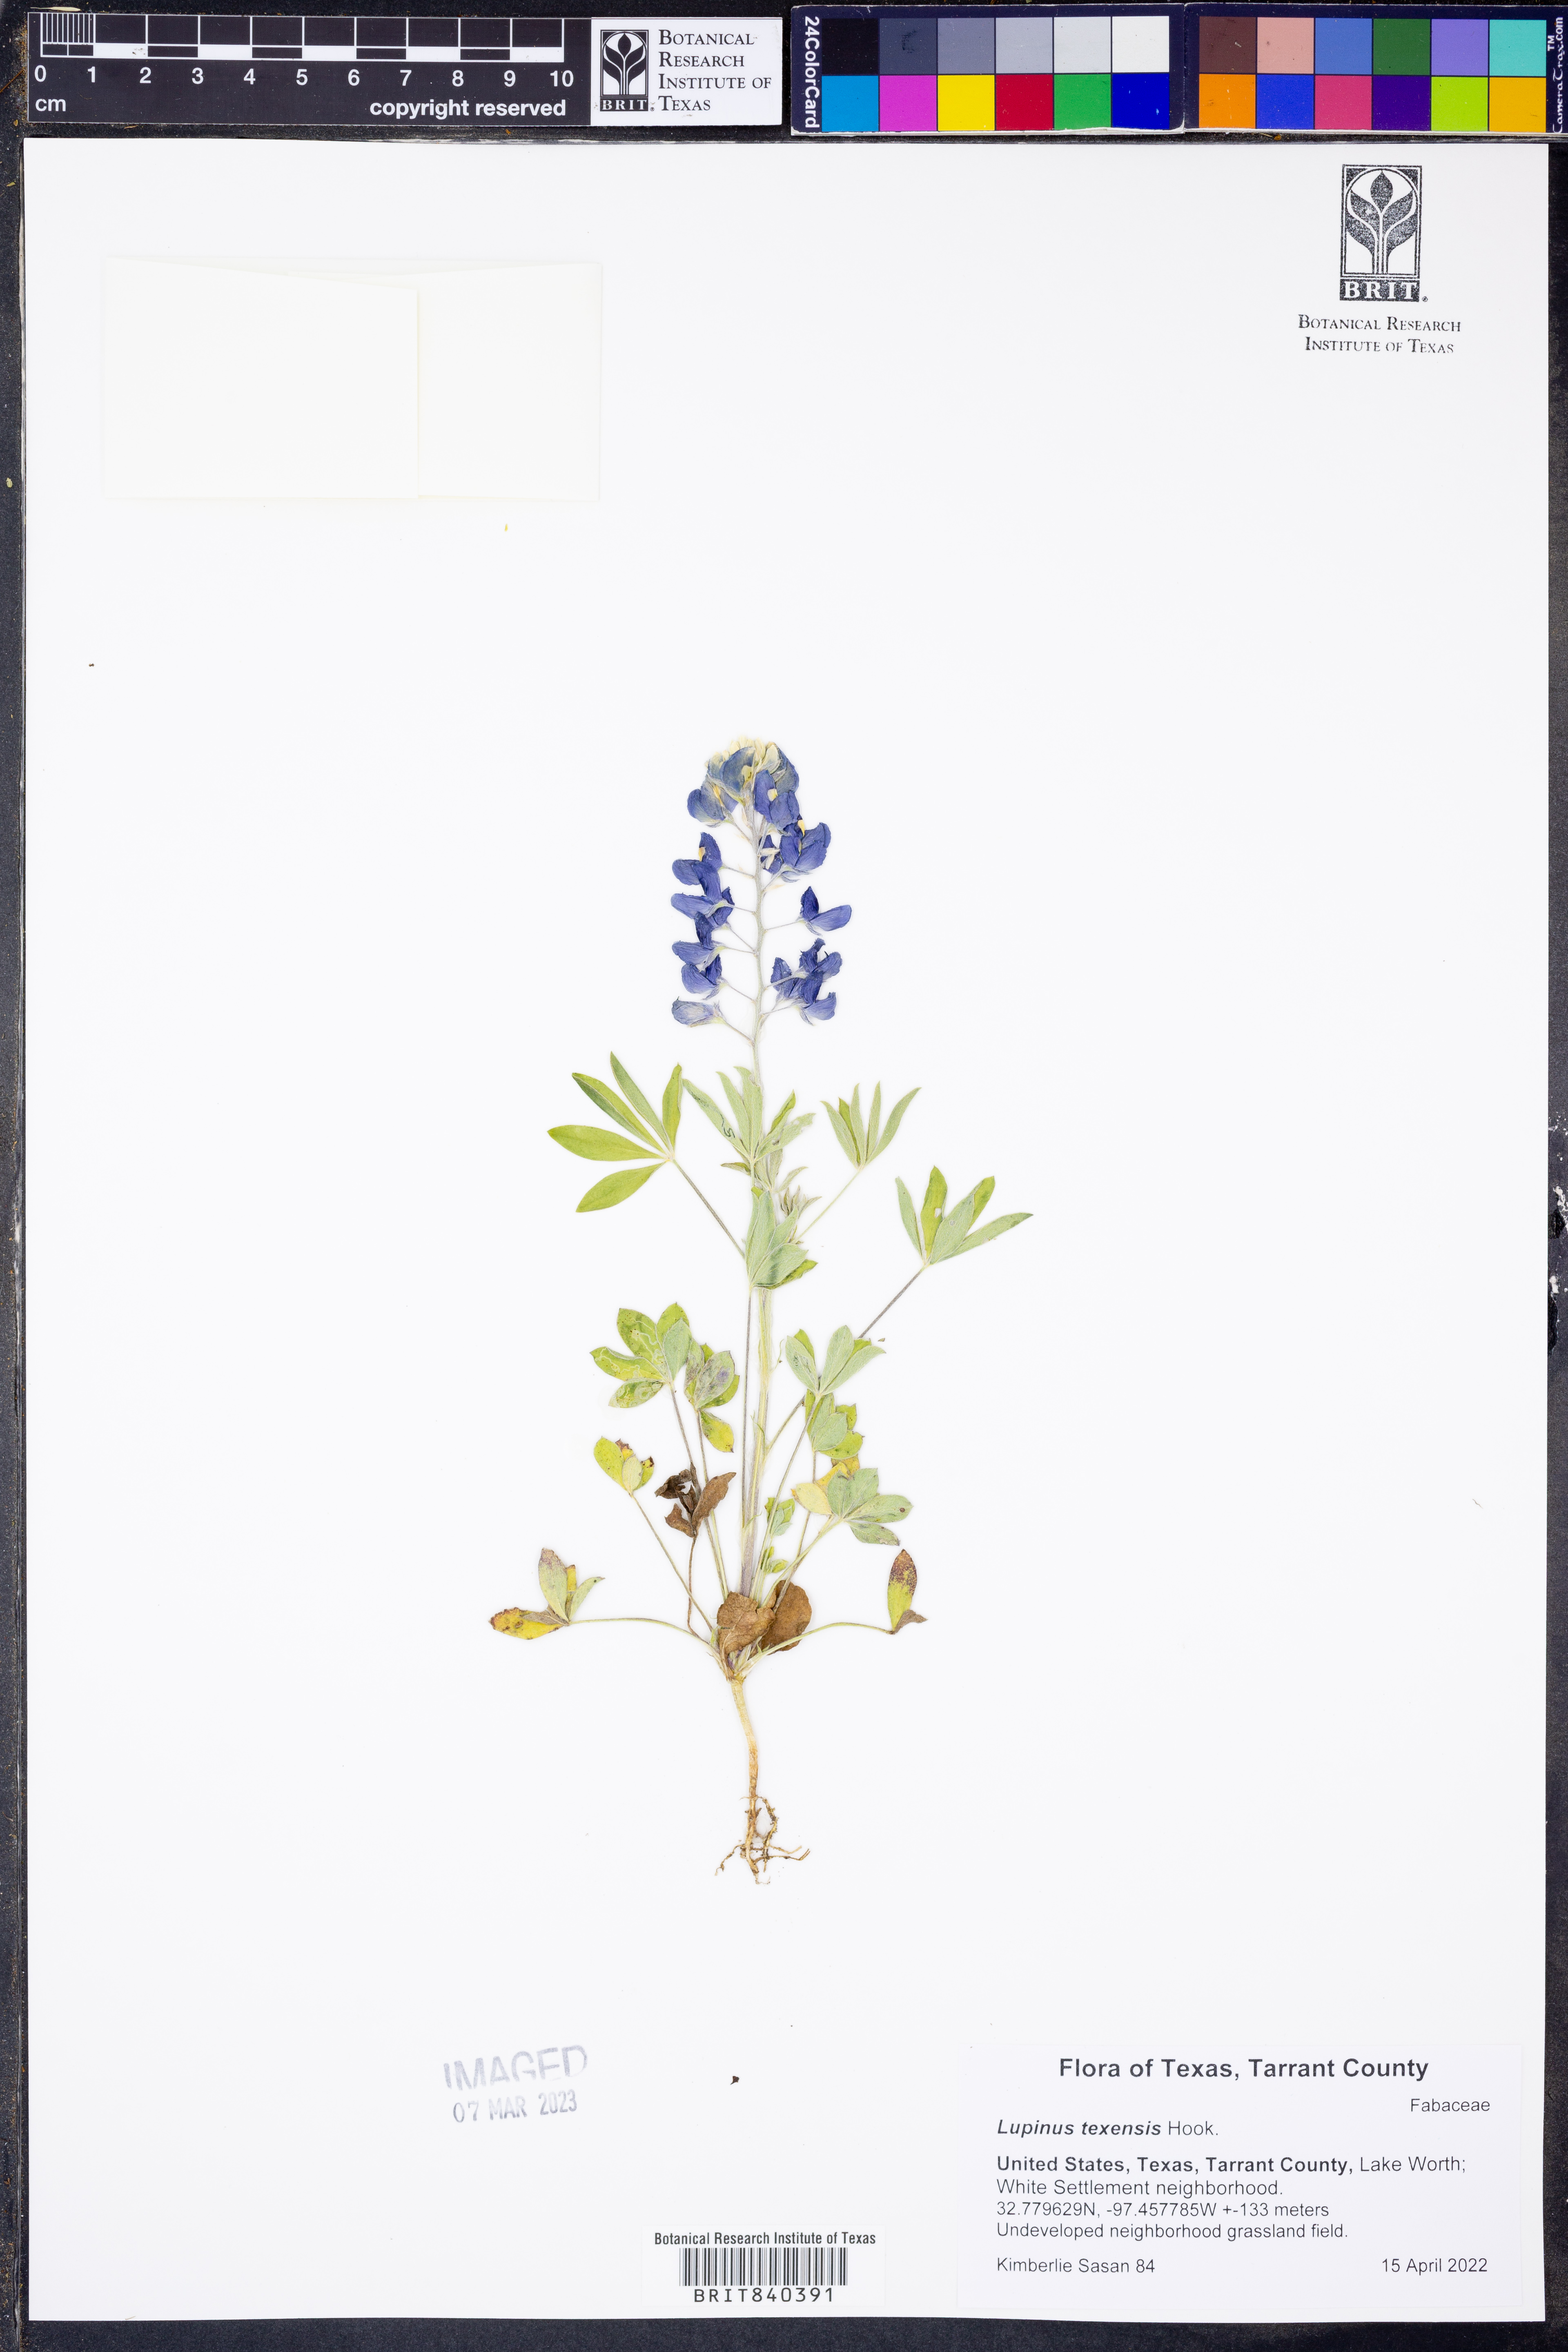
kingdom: Plantae
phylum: Tracheophyta
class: Magnoliopsida
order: Fabales
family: Fabaceae
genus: Lupinus
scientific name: Lupinus texensis
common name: Texas bluebonnet
